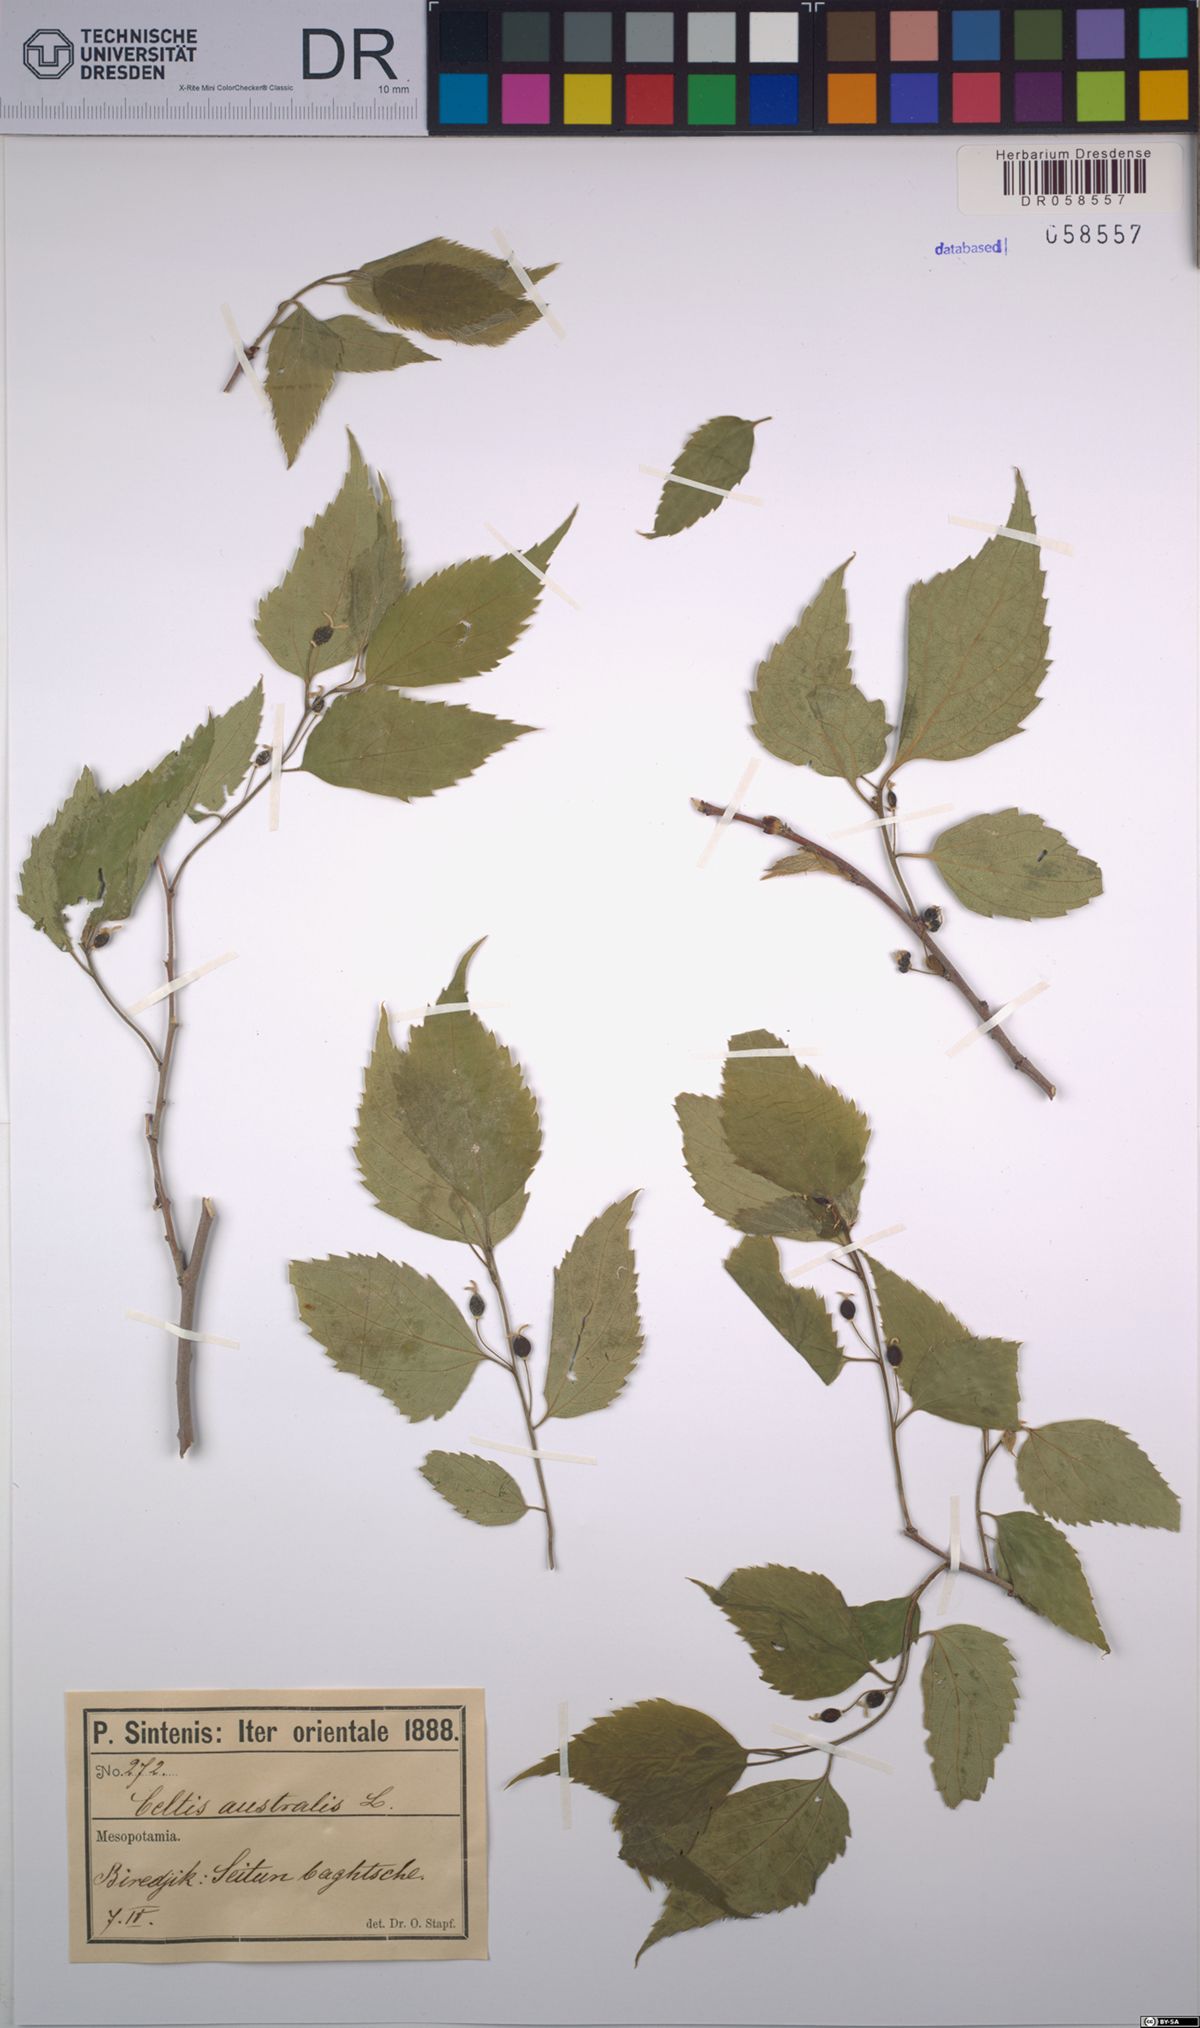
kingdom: Plantae
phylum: Tracheophyta
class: Magnoliopsida
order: Rosales
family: Cannabaceae
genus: Celtis
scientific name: Celtis australis
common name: European hackberry
